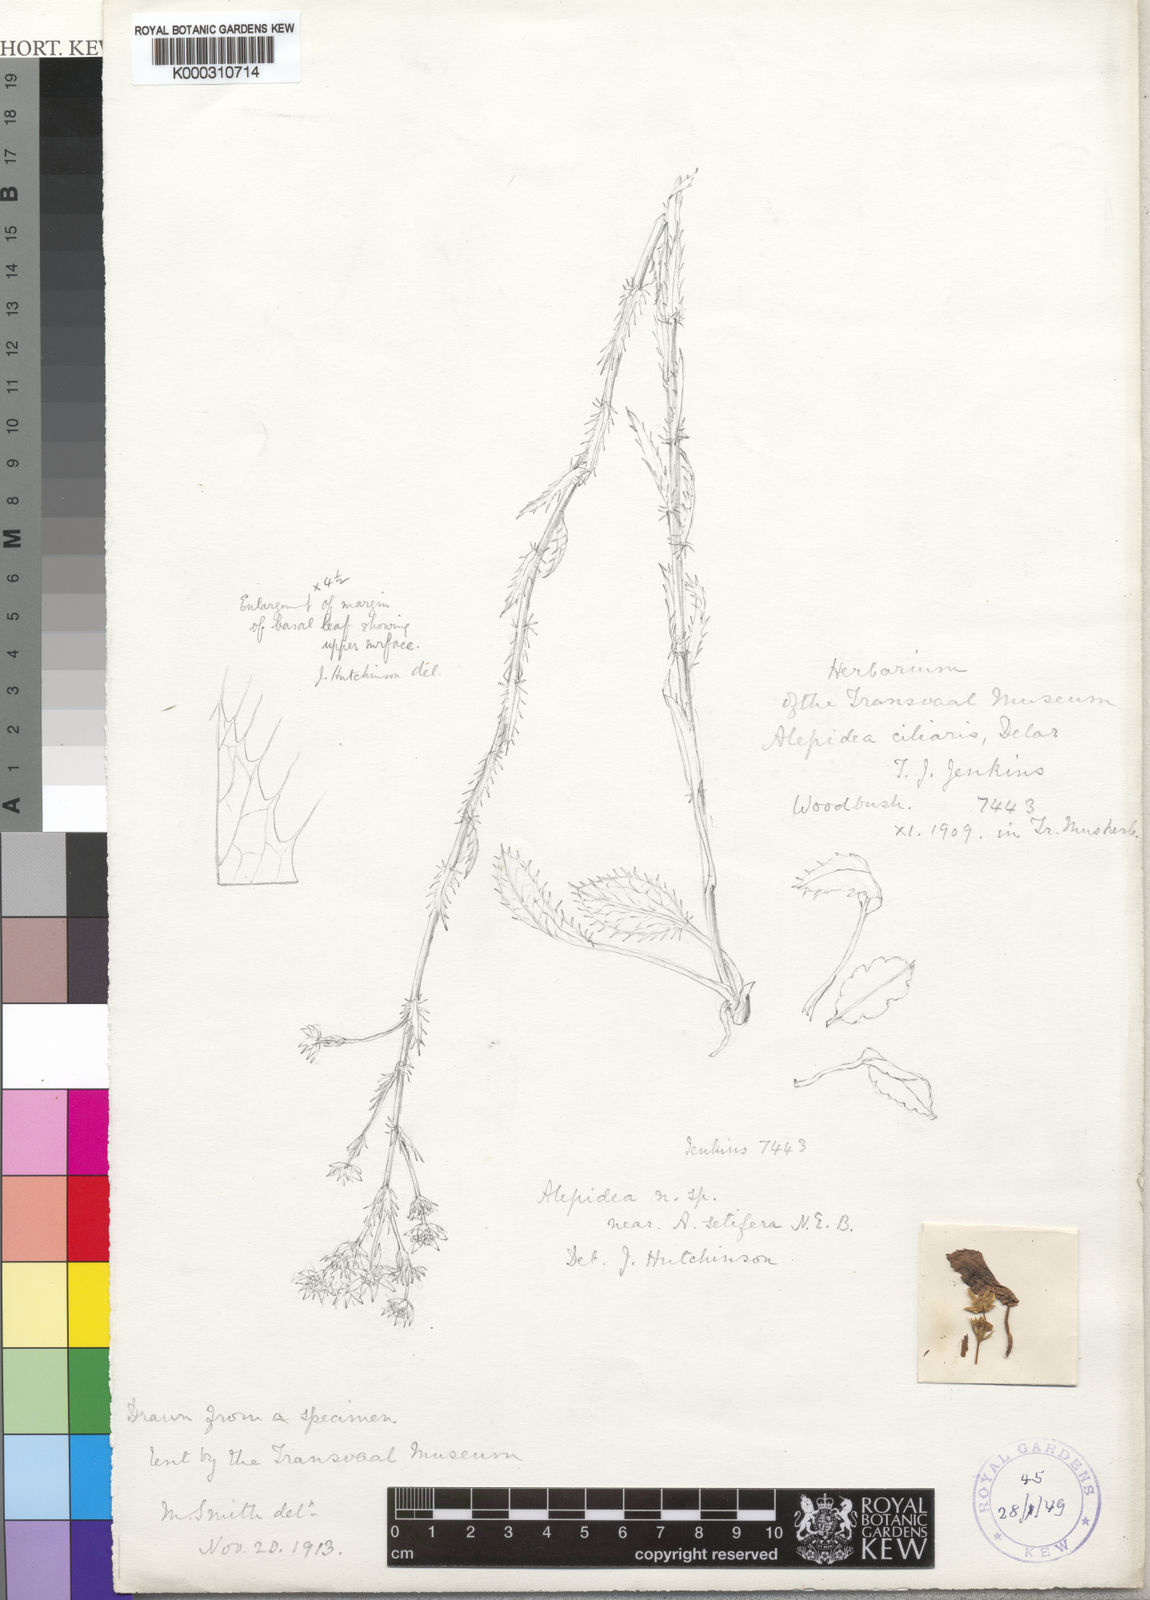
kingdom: Plantae
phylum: Tracheophyta
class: Magnoliopsida
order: Apiales
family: Apiaceae
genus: Alepidea
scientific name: Alepidea setifera
